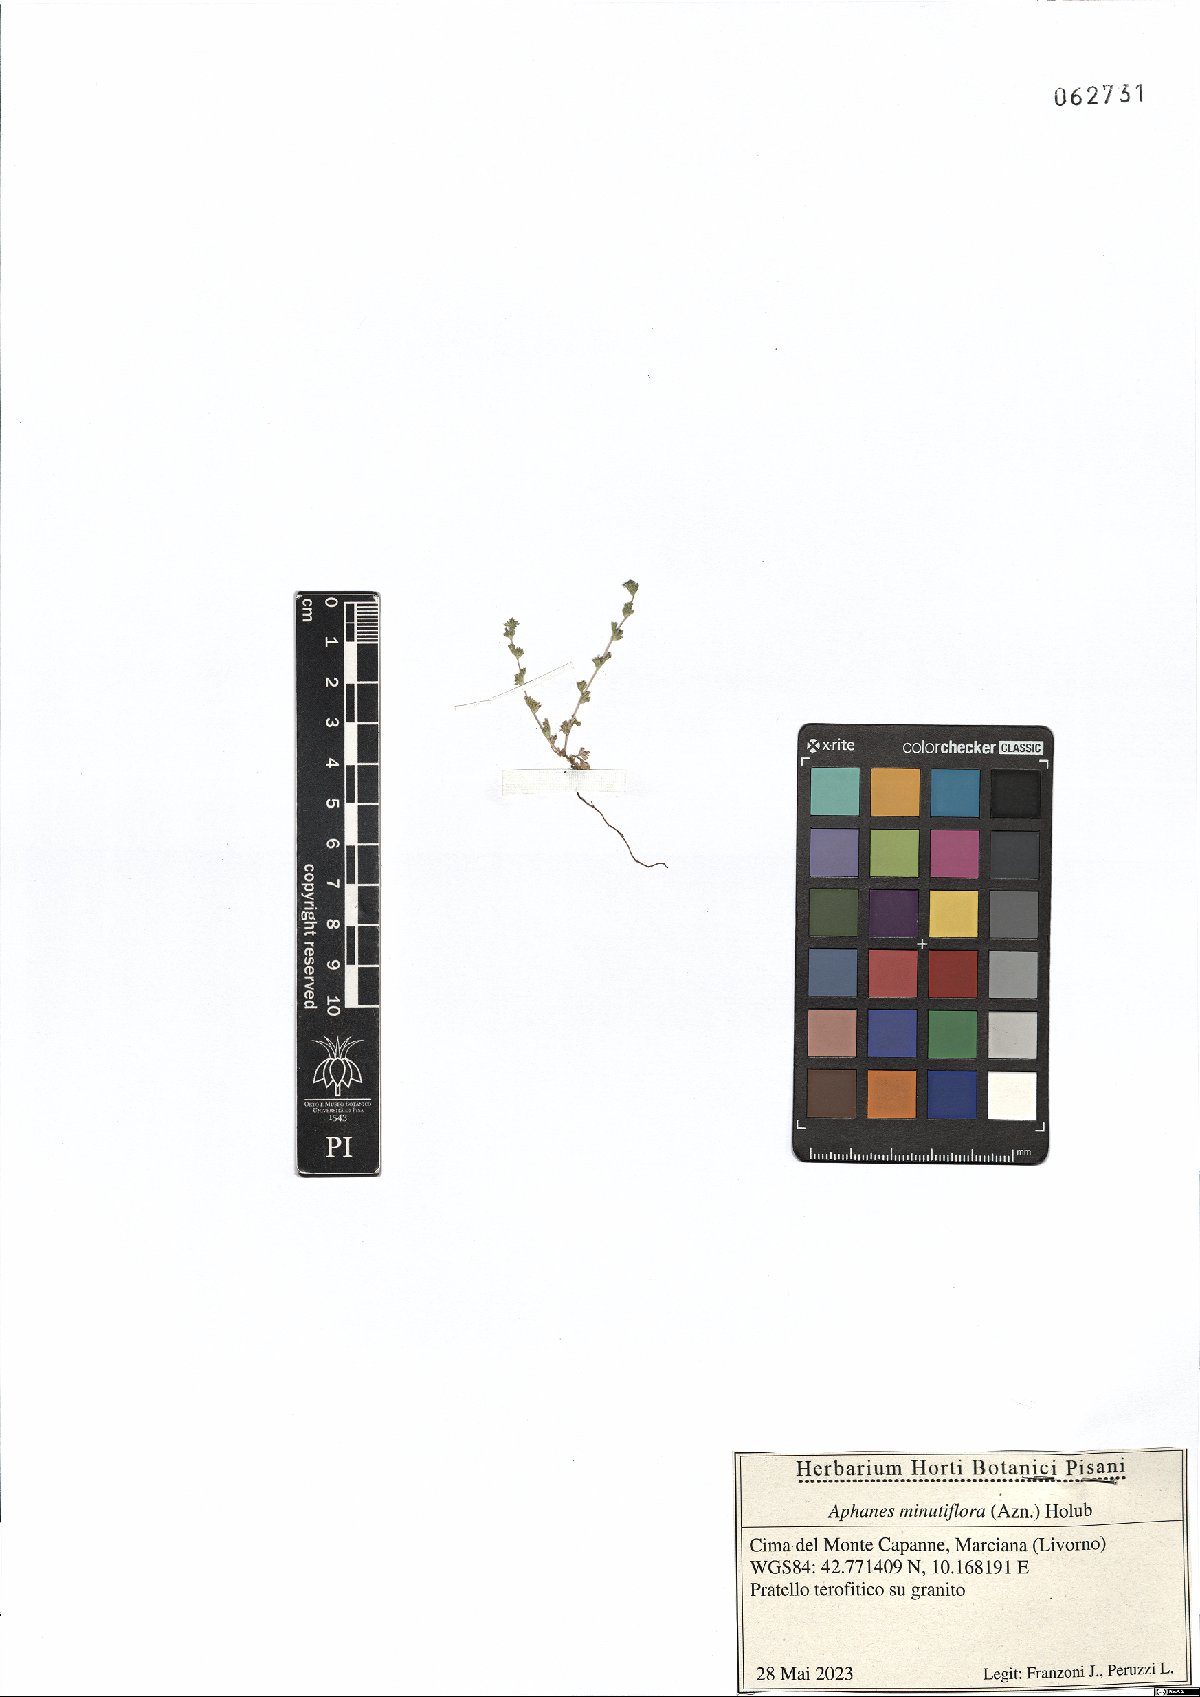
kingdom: Plantae
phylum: Tracheophyta
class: Magnoliopsida
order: Rosales
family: Rosaceae
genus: Aphanes
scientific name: Aphanes minutiflora
